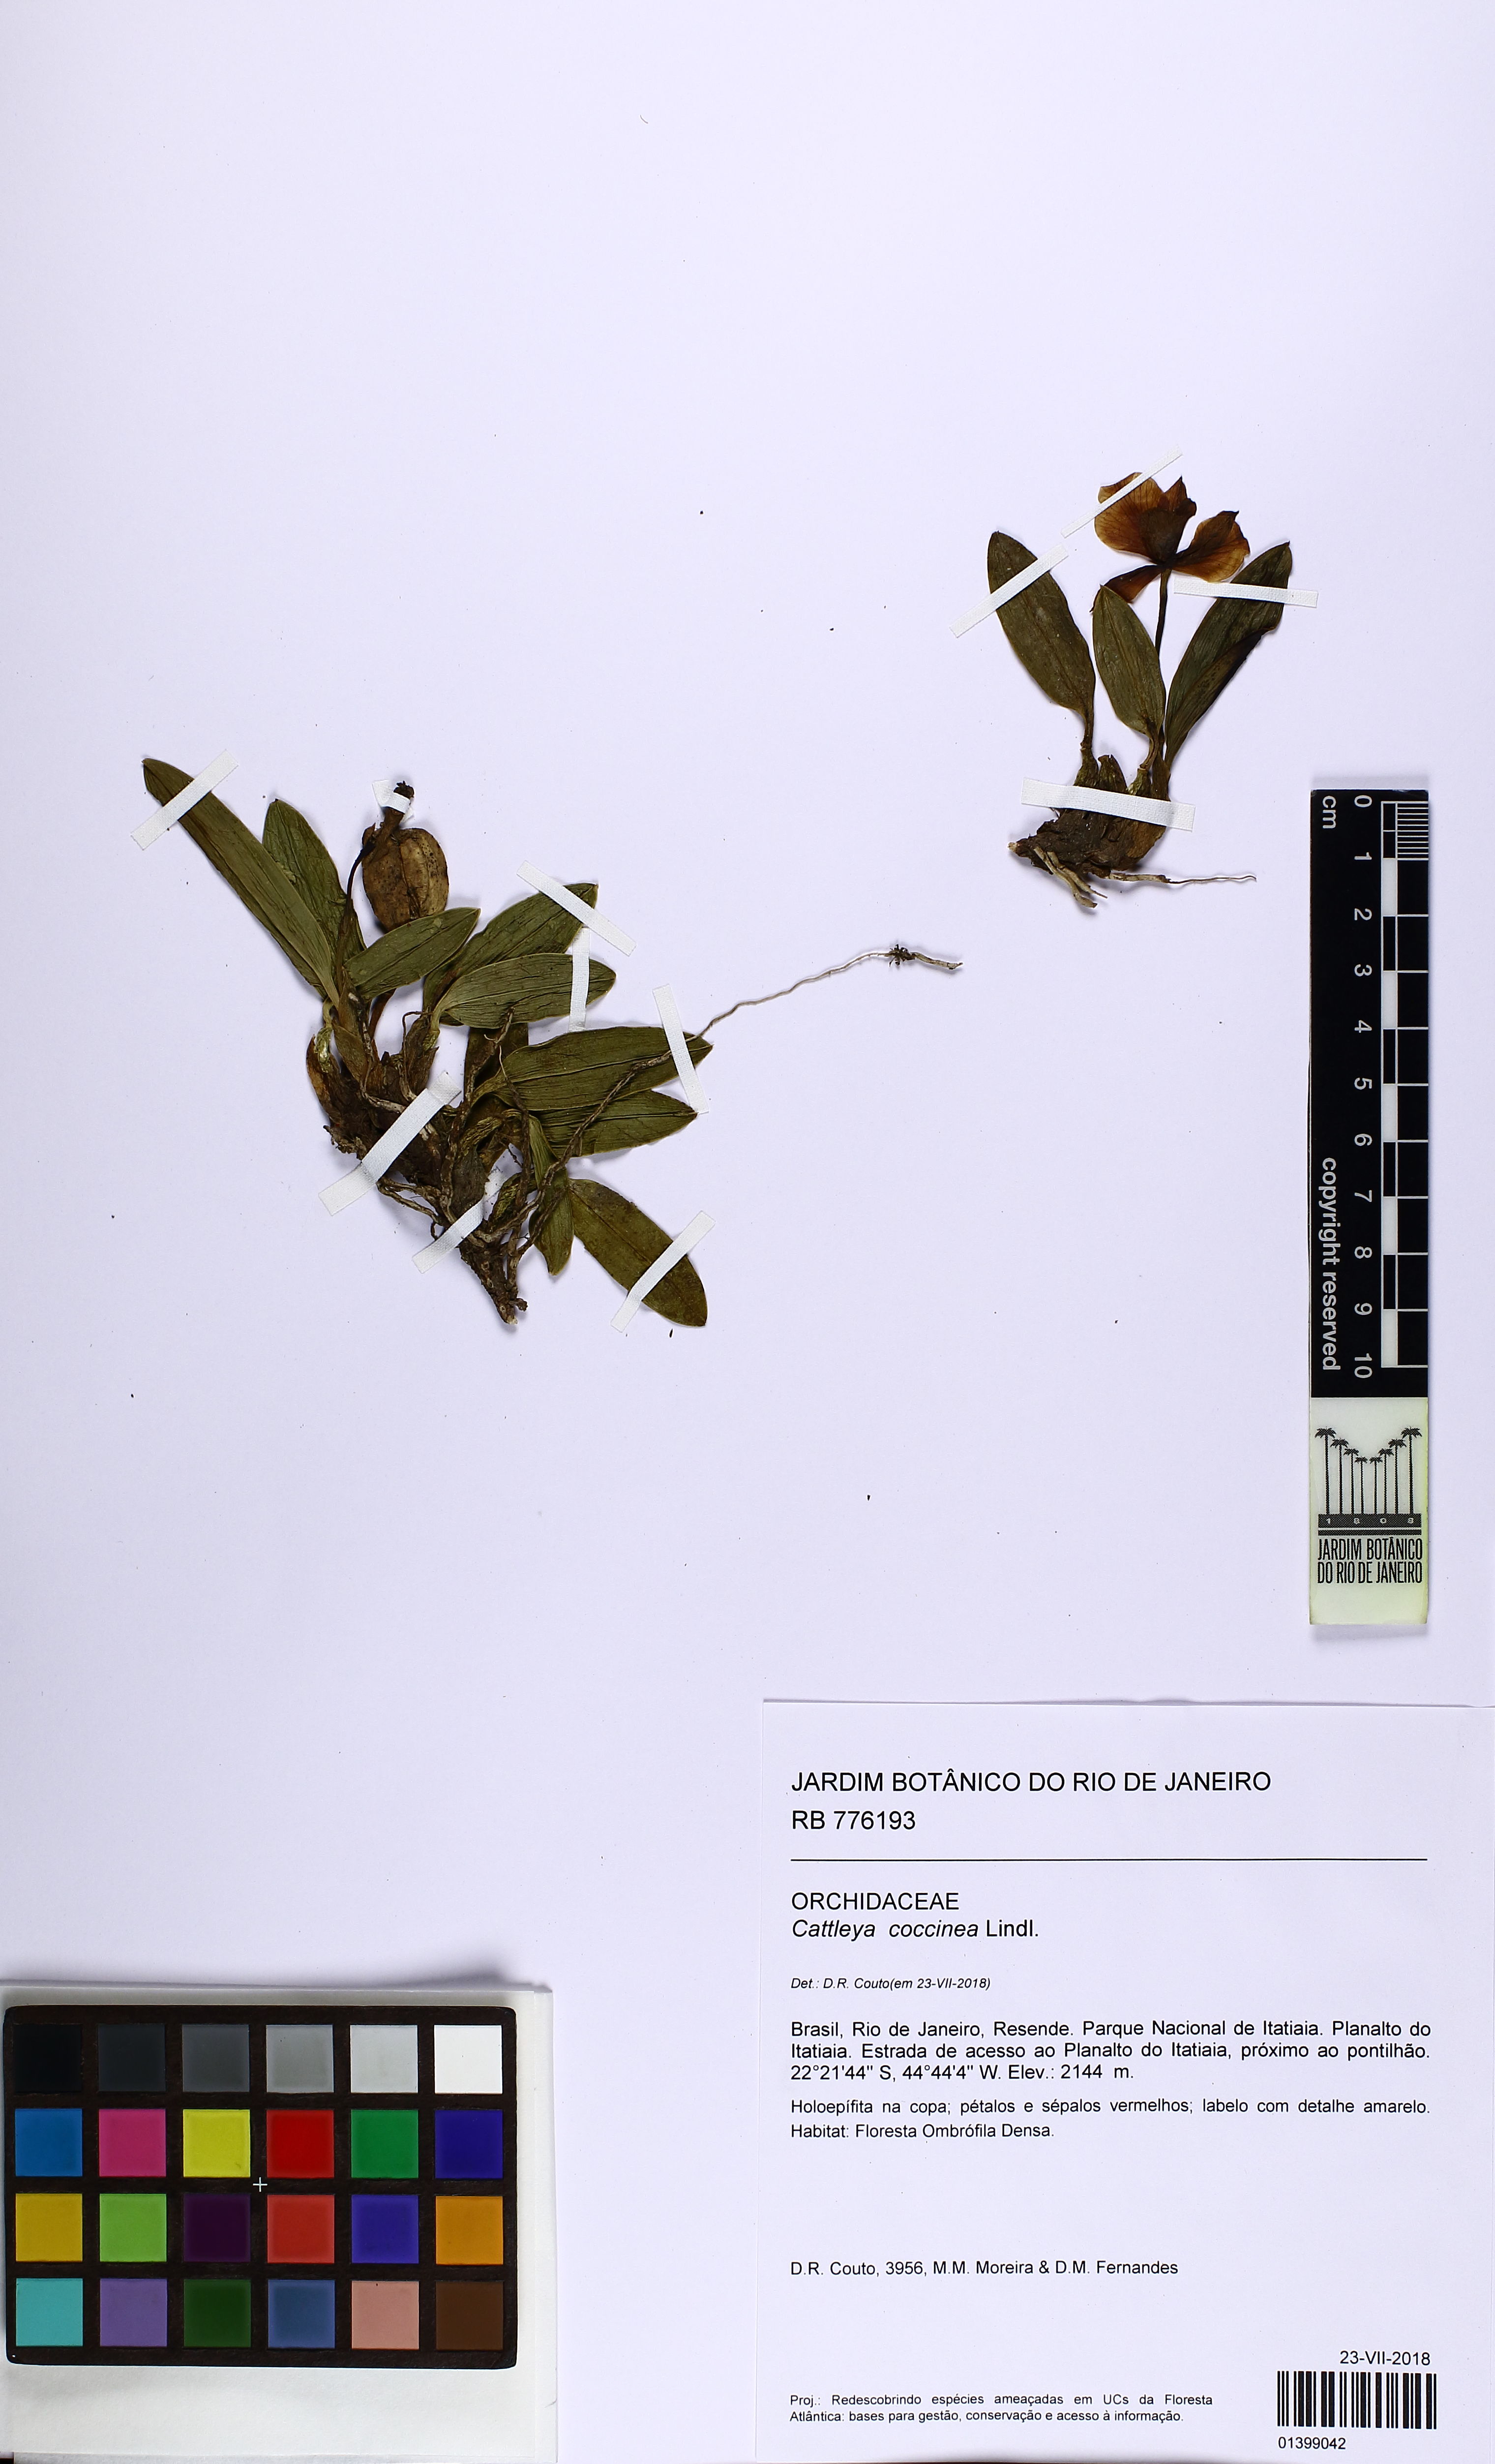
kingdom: Plantae
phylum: Tracheophyta
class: Liliopsida
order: Asparagales
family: Orchidaceae
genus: Cattleya
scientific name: Cattleya coccinea
